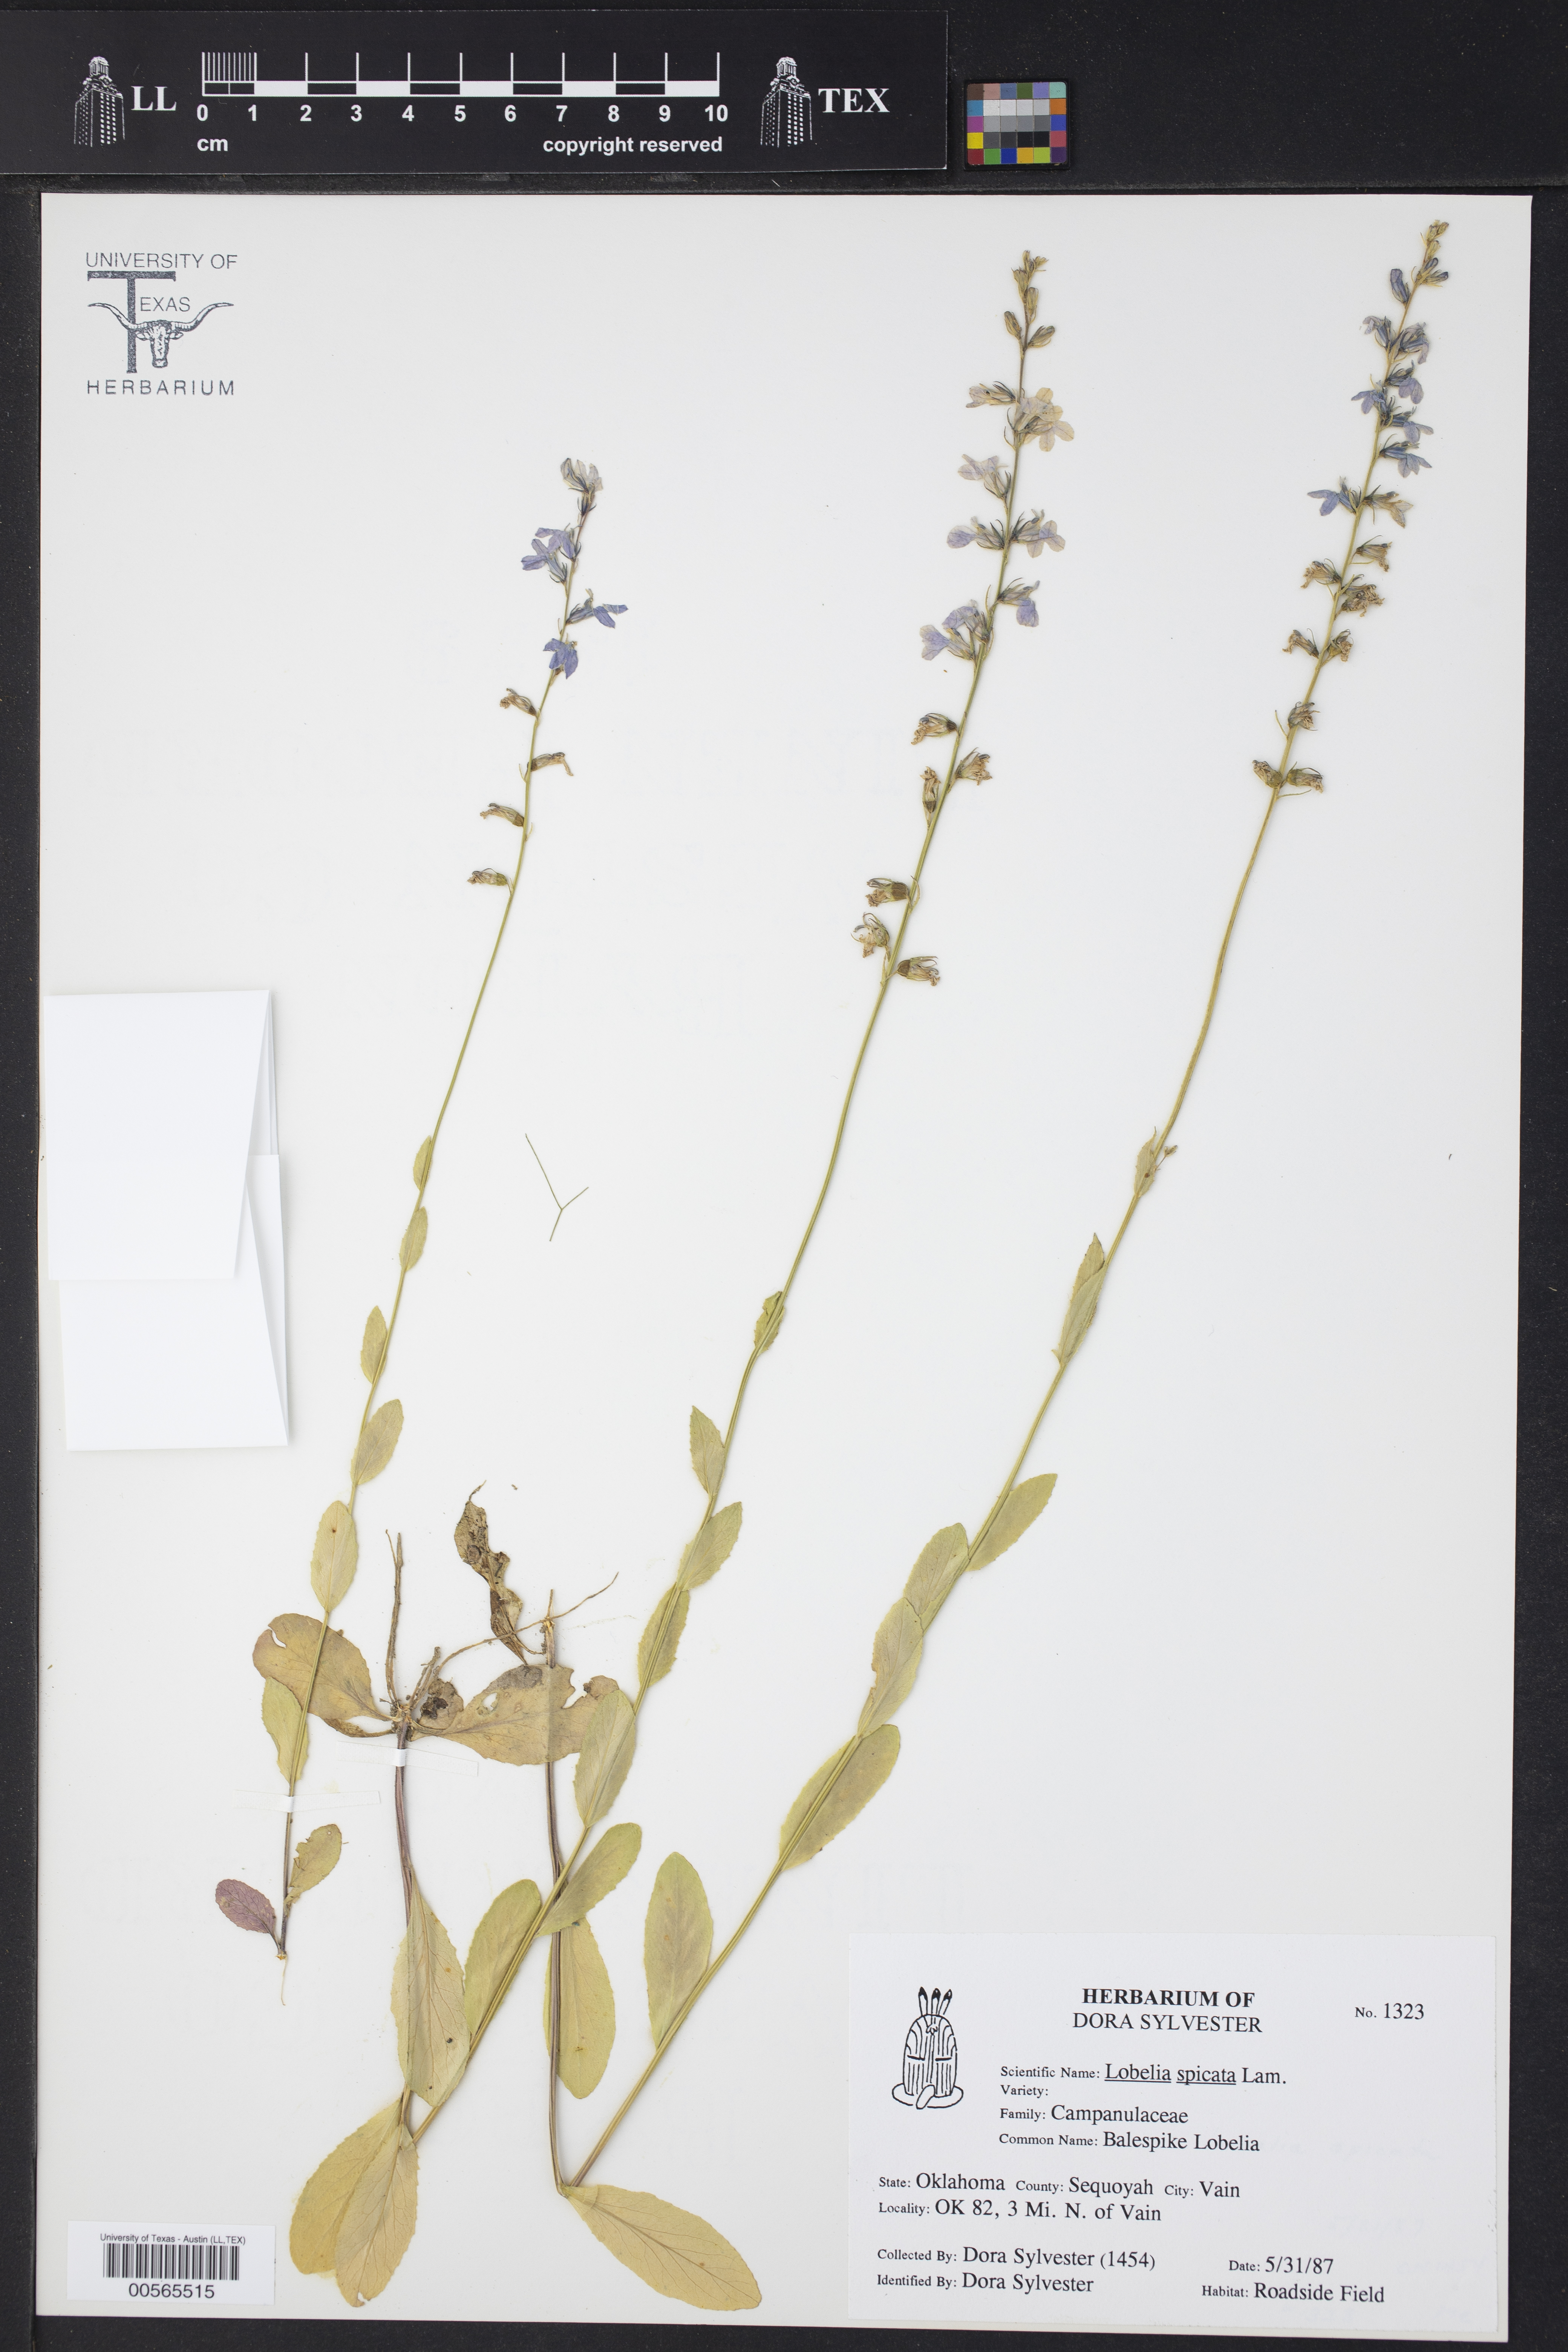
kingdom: Plantae
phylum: Tracheophyta
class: Magnoliopsida
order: Asterales
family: Campanulaceae
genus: Lobelia
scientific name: Lobelia spicata
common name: Pale-spike lobelia
